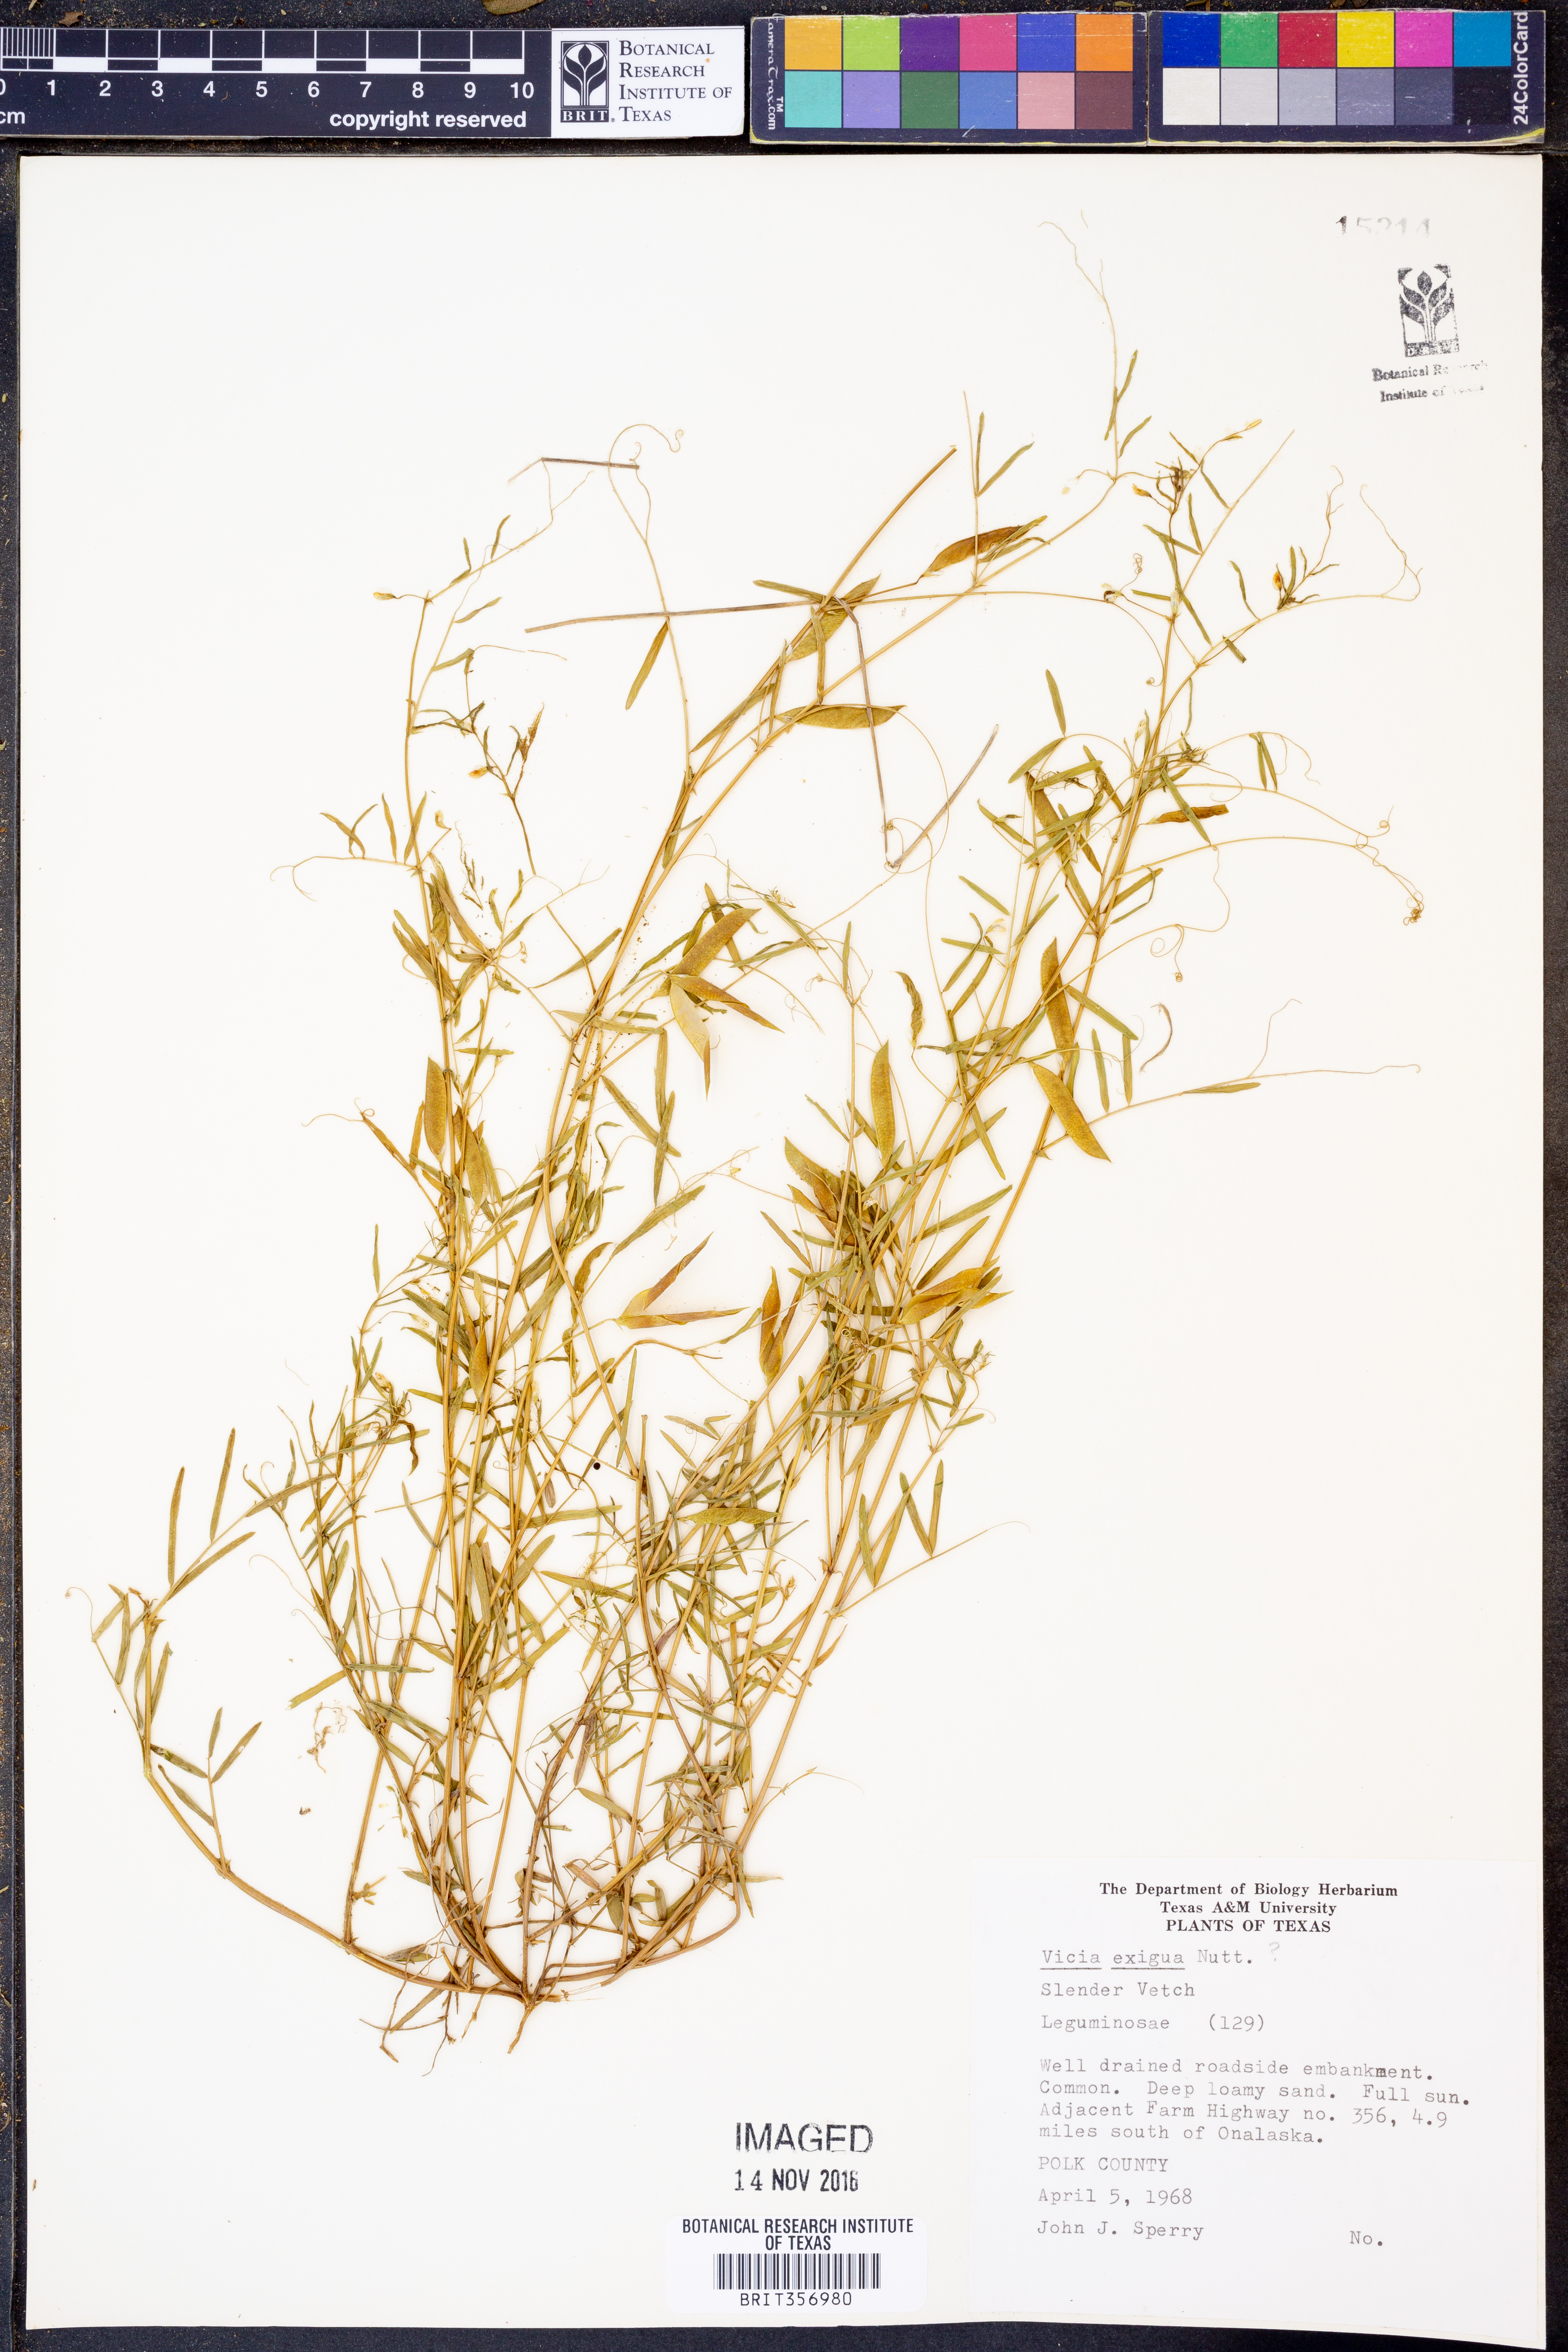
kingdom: Plantae
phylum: Tracheophyta
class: Magnoliopsida
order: Fabales
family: Fabaceae
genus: Vicia
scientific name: Vicia ludoviciana
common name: Louisiana vetch
